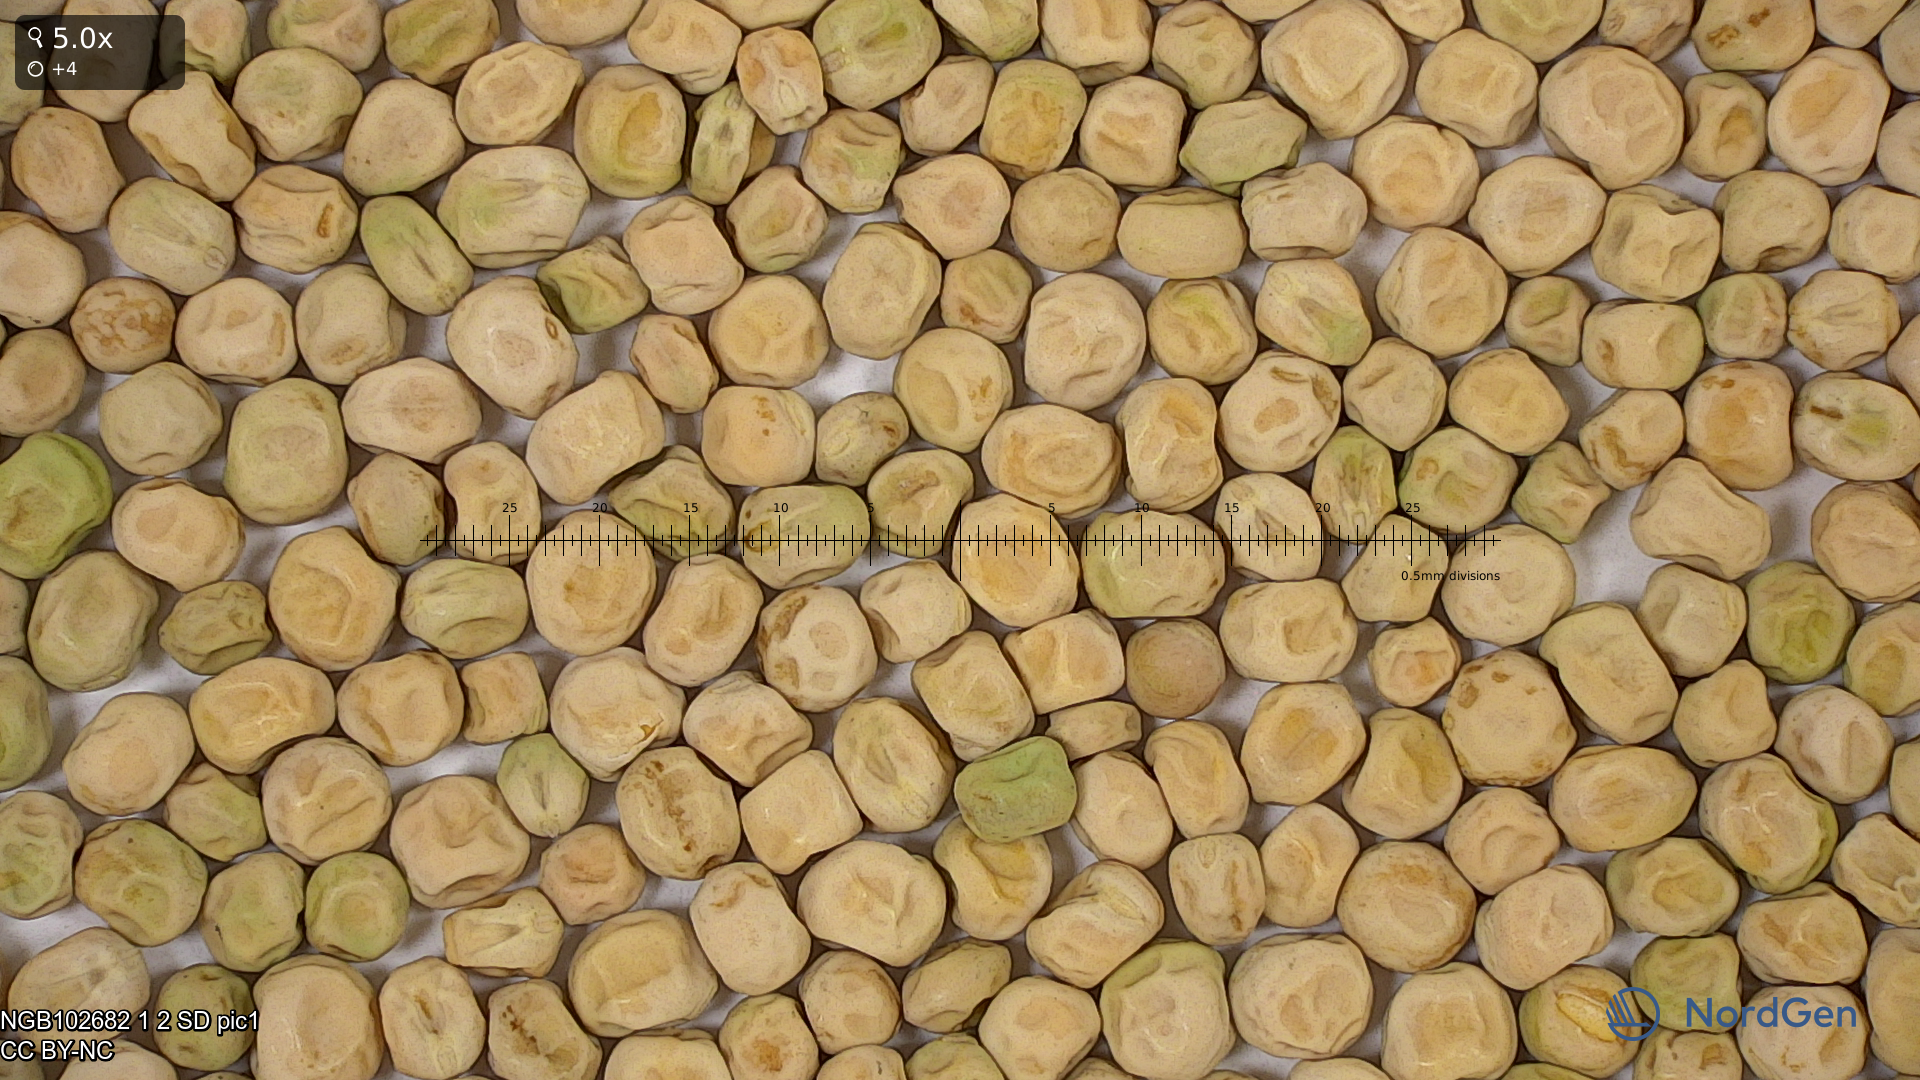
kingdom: Plantae
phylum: Tracheophyta
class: Magnoliopsida
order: Fabales
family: Fabaceae
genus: Lathyrus
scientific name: Lathyrus oleraceus
